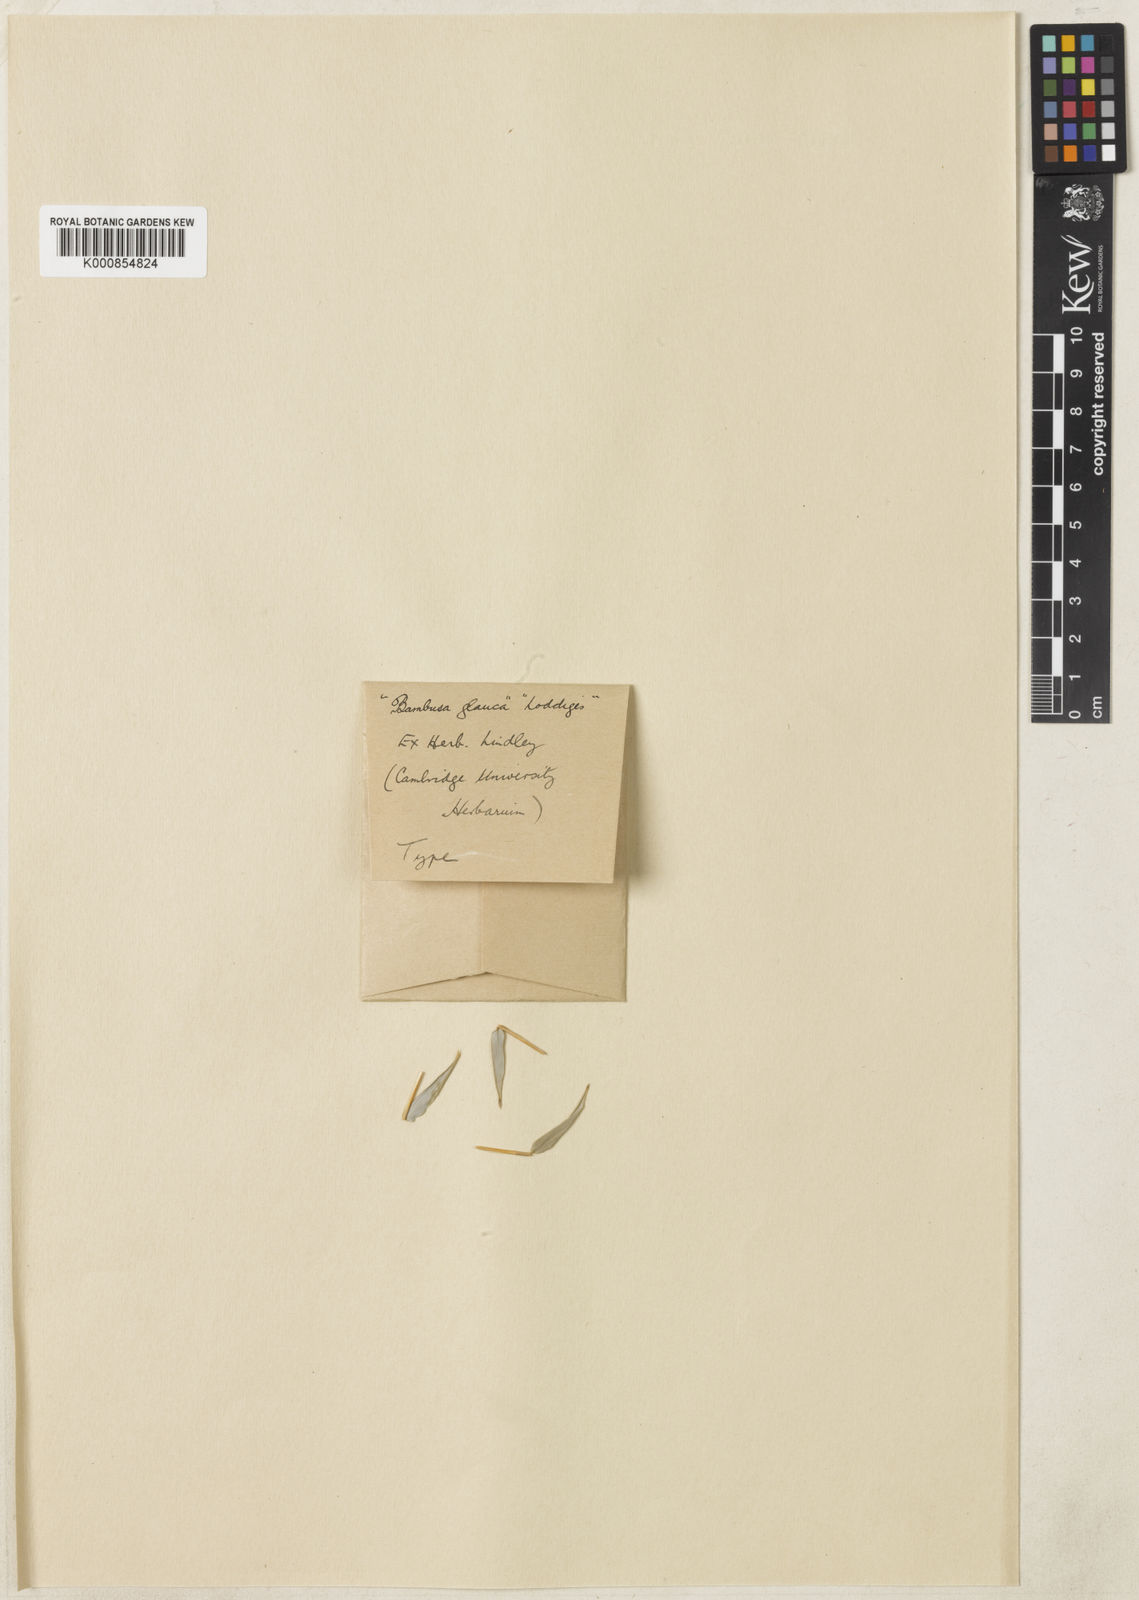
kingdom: Plantae
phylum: Tracheophyta
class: Liliopsida
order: Poales
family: Poaceae
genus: Bambusa
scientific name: Bambusa multiplex
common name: Hedge bamboo
